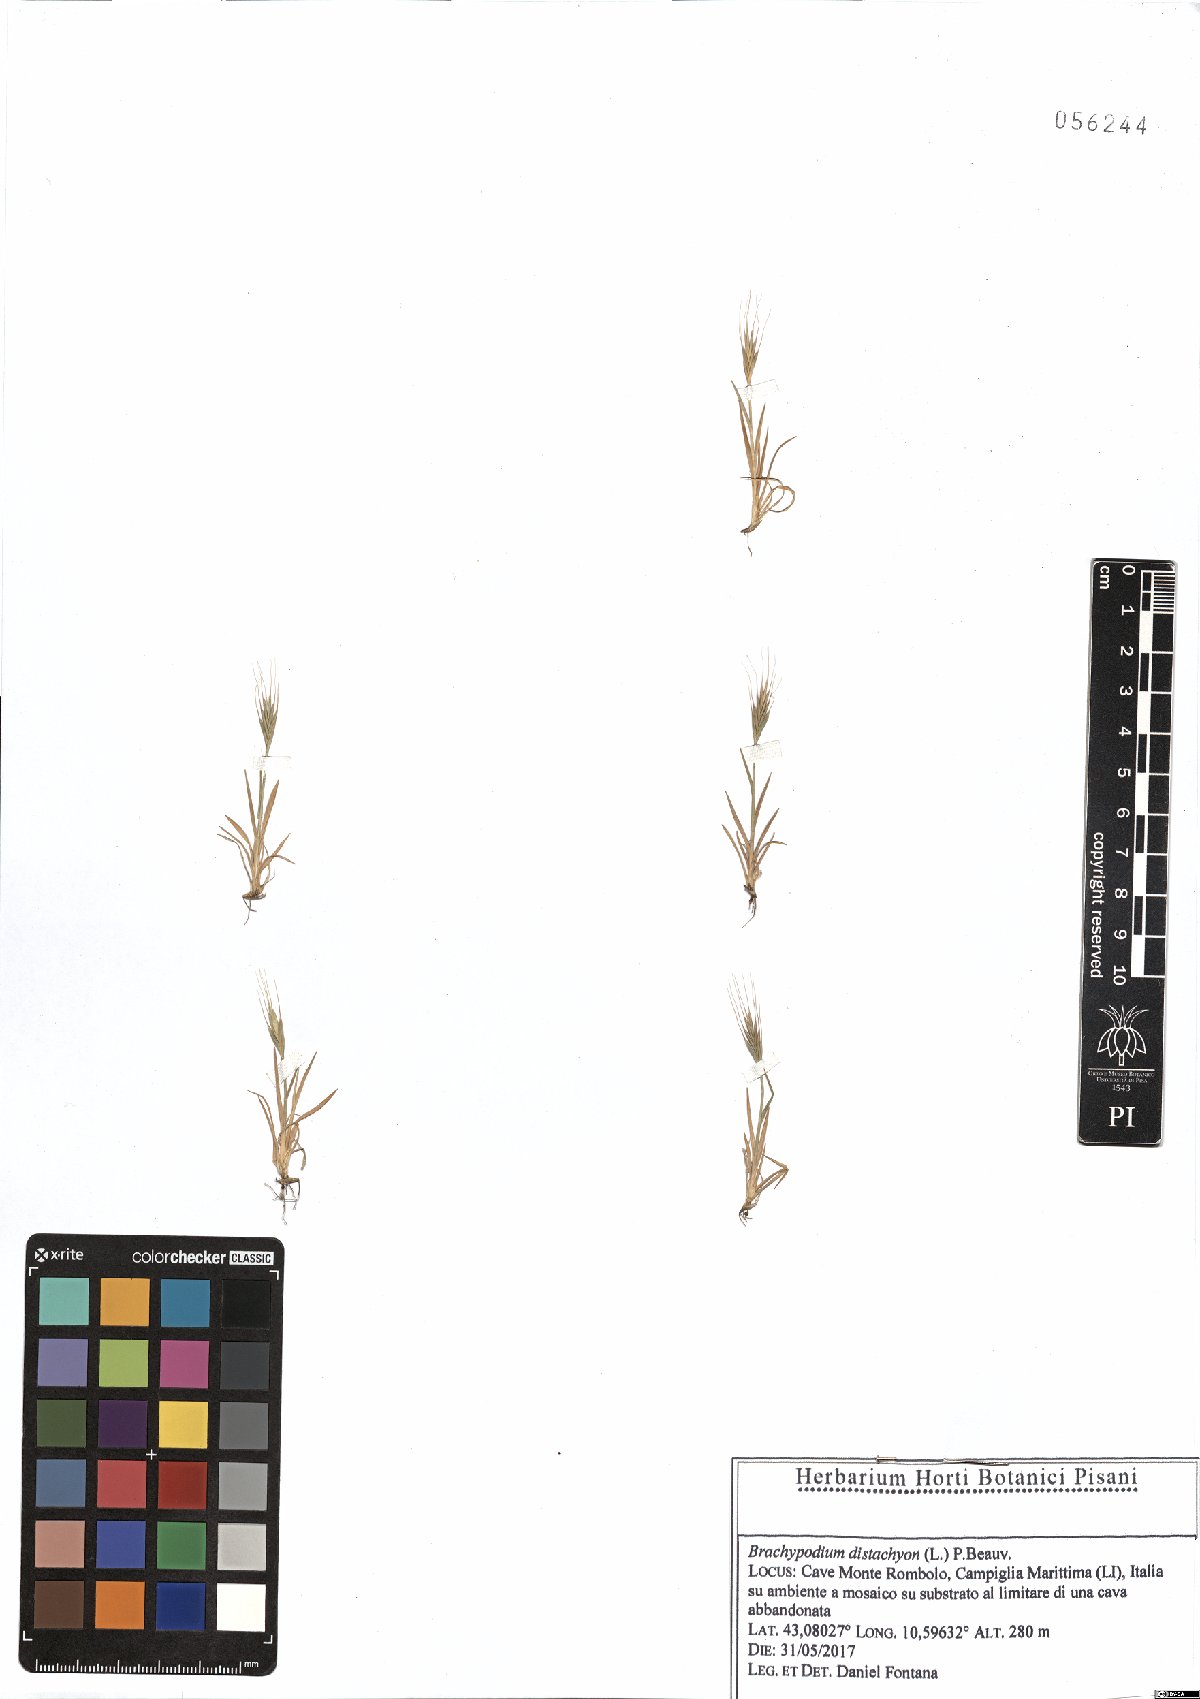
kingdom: Plantae
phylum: Tracheophyta
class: Liliopsida
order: Poales
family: Poaceae
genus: Brachypodium
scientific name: Brachypodium distachyon
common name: Stiff brome
